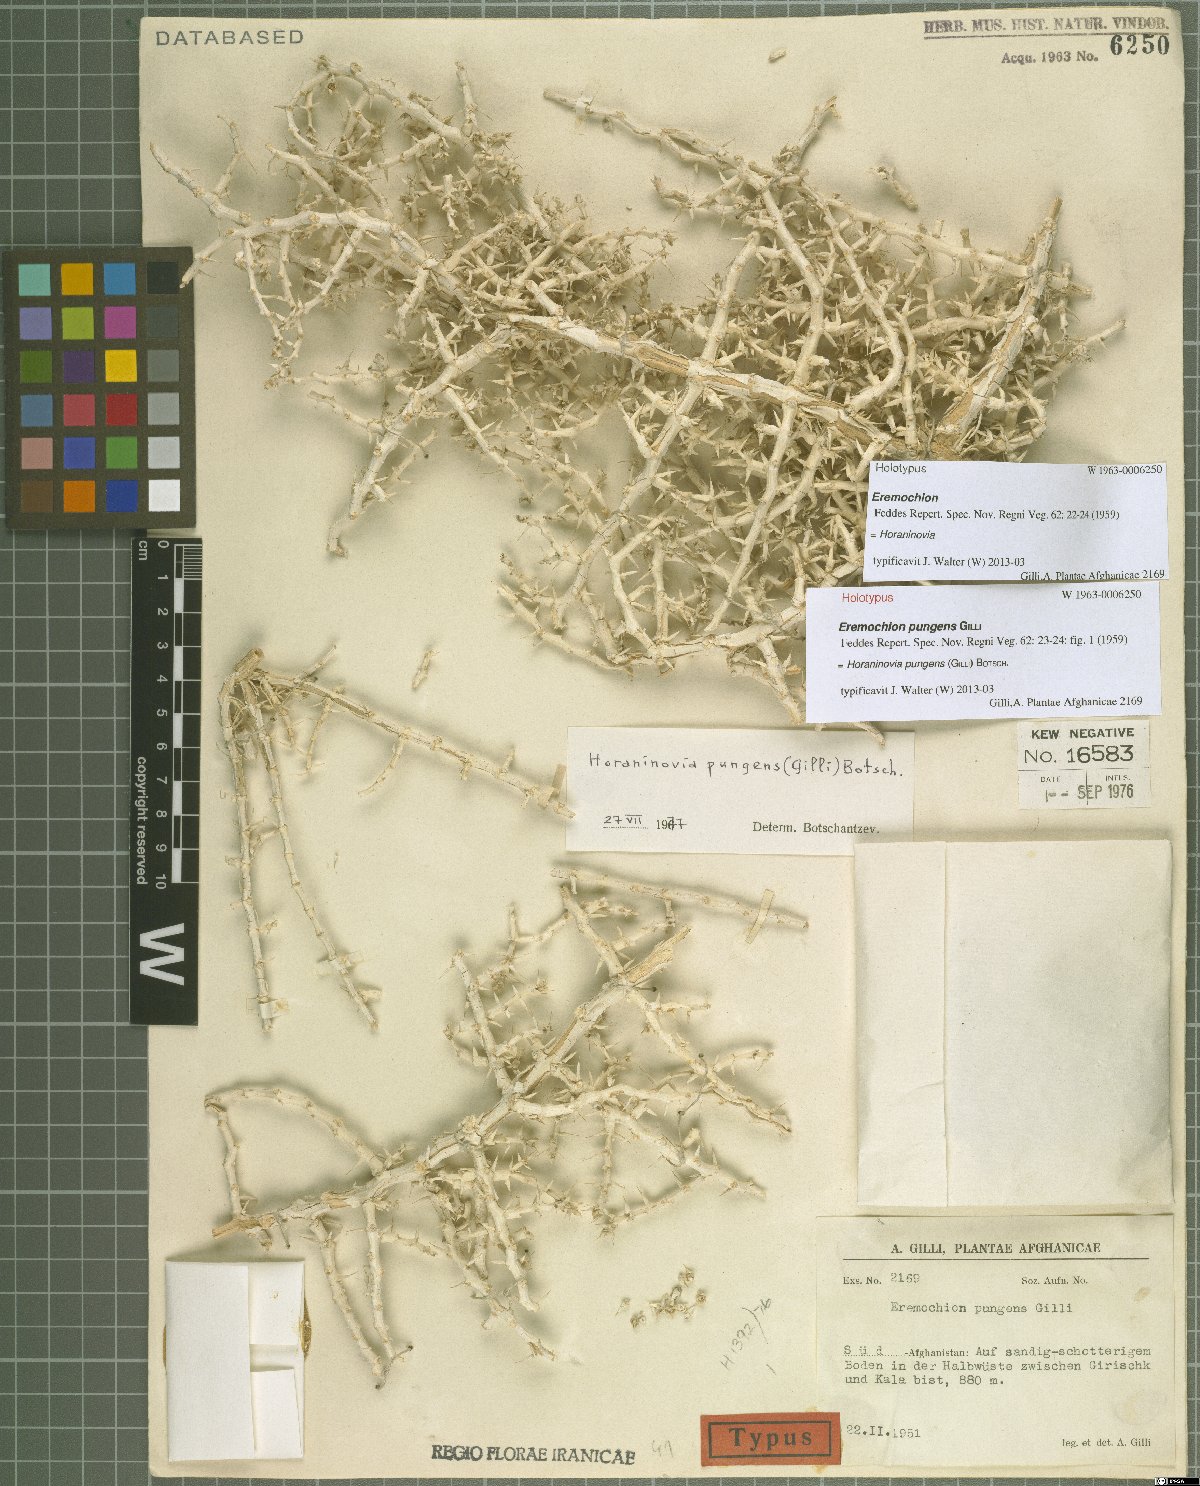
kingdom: Plantae
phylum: Tracheophyta
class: Magnoliopsida
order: Caryophyllales
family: Amaranthaceae
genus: Horaninovia
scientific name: Horaninovia pungens
